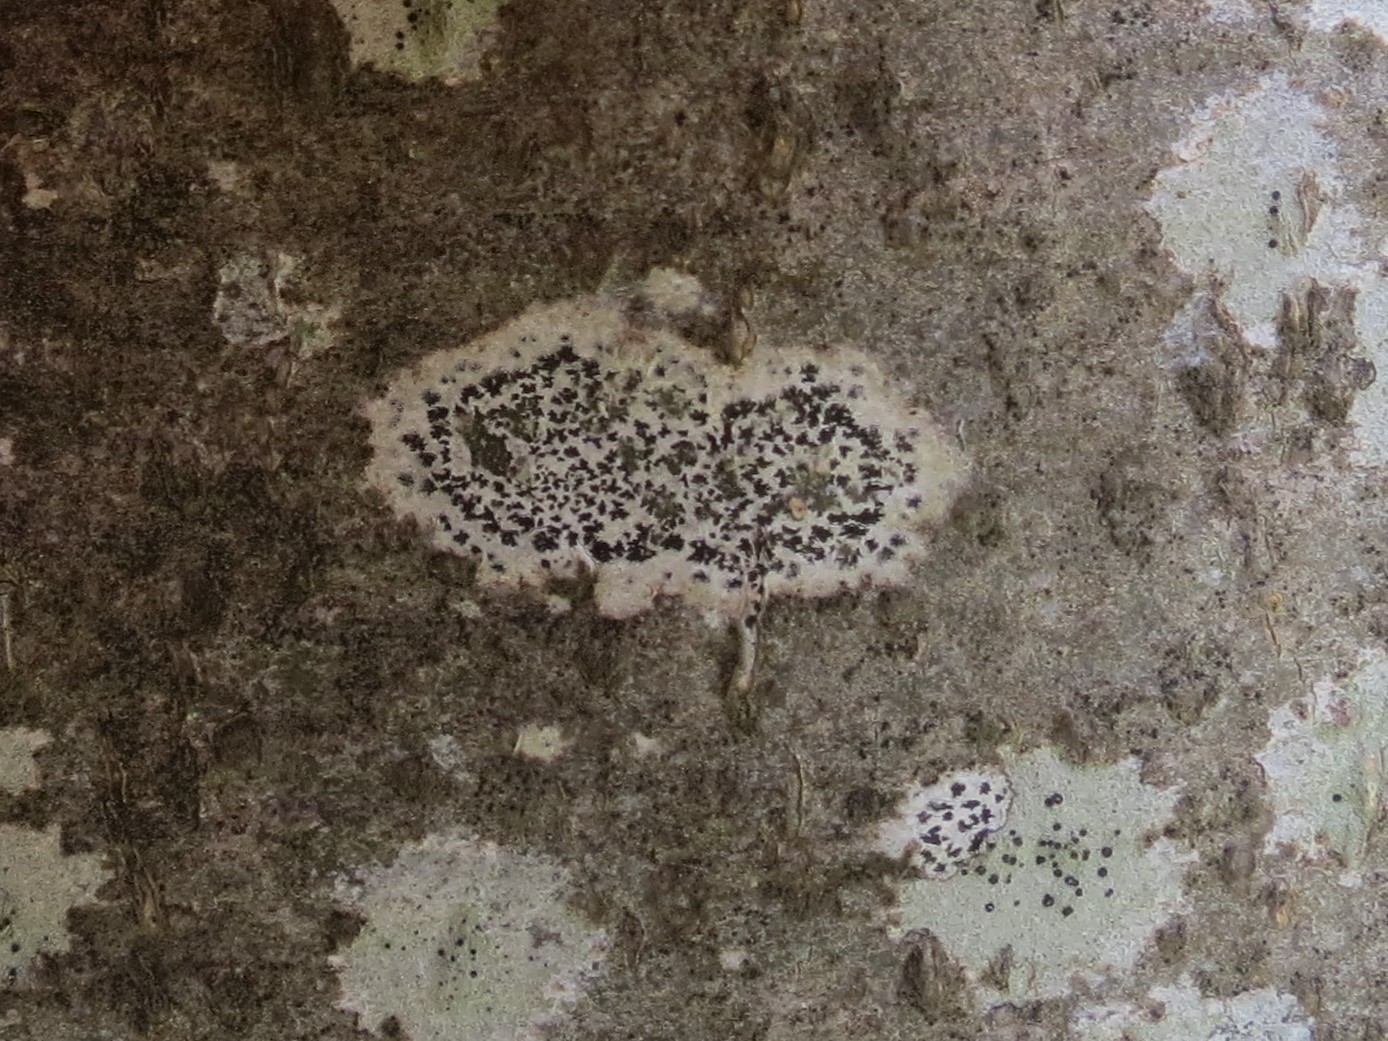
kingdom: Fungi
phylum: Ascomycota
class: Arthoniomycetes
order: Arthoniales
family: Arthoniaceae
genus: Arthonia
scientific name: Arthonia radiata
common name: stjerne-pletlav
